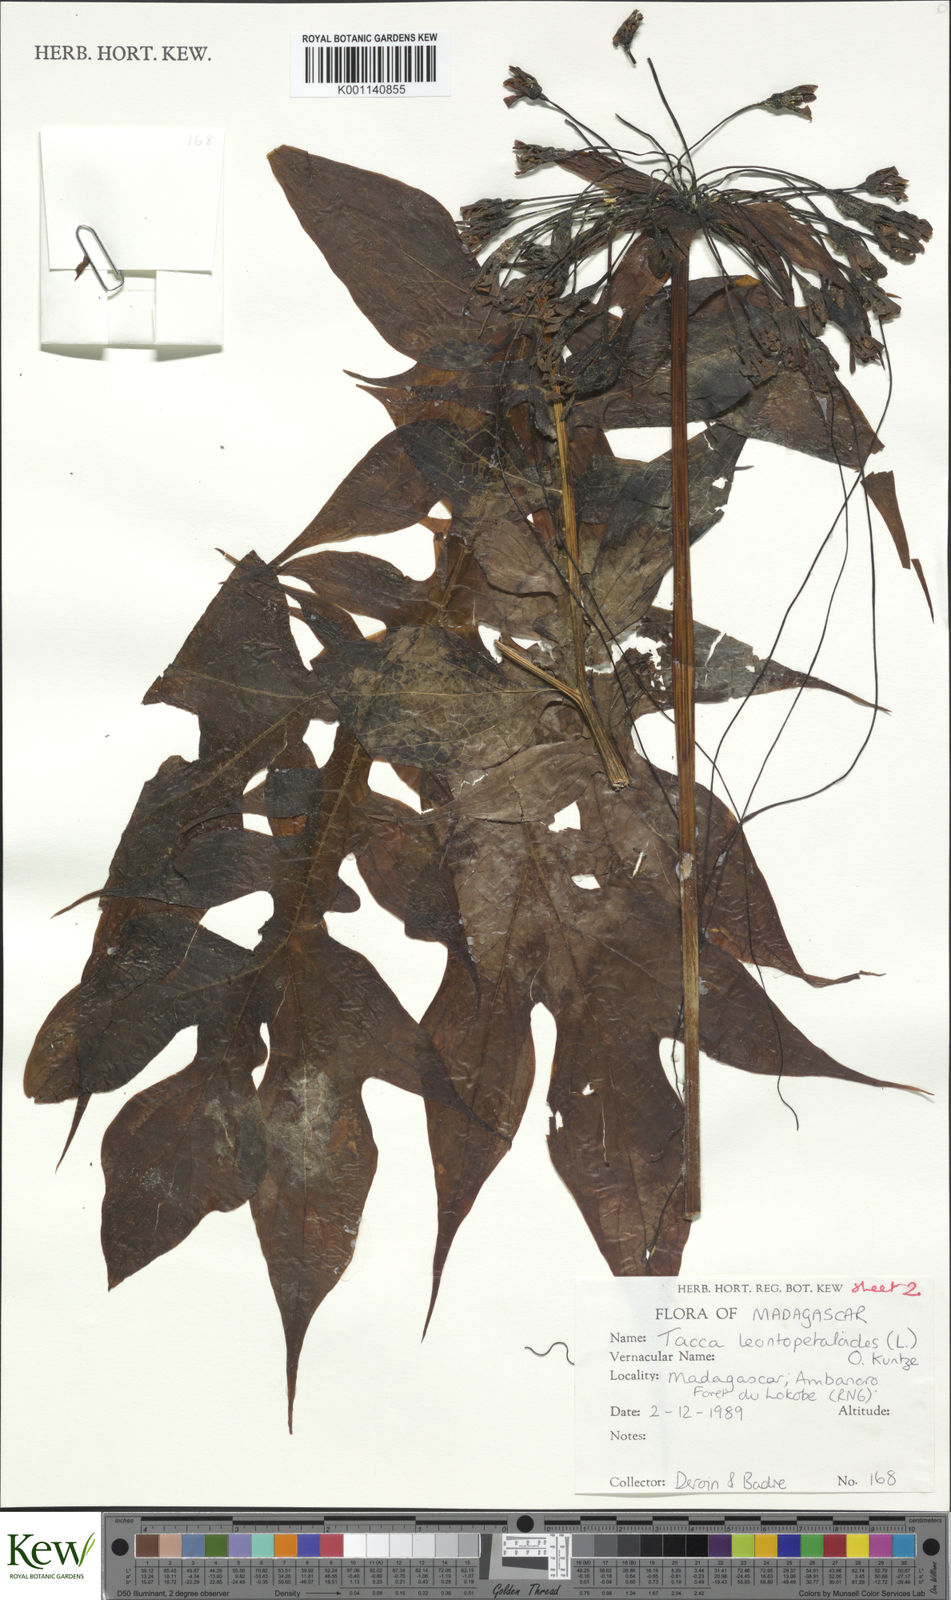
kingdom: Plantae
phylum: Tracheophyta
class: Liliopsida
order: Dioscoreales
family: Dioscoreaceae
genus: Tacca
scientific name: Tacca
